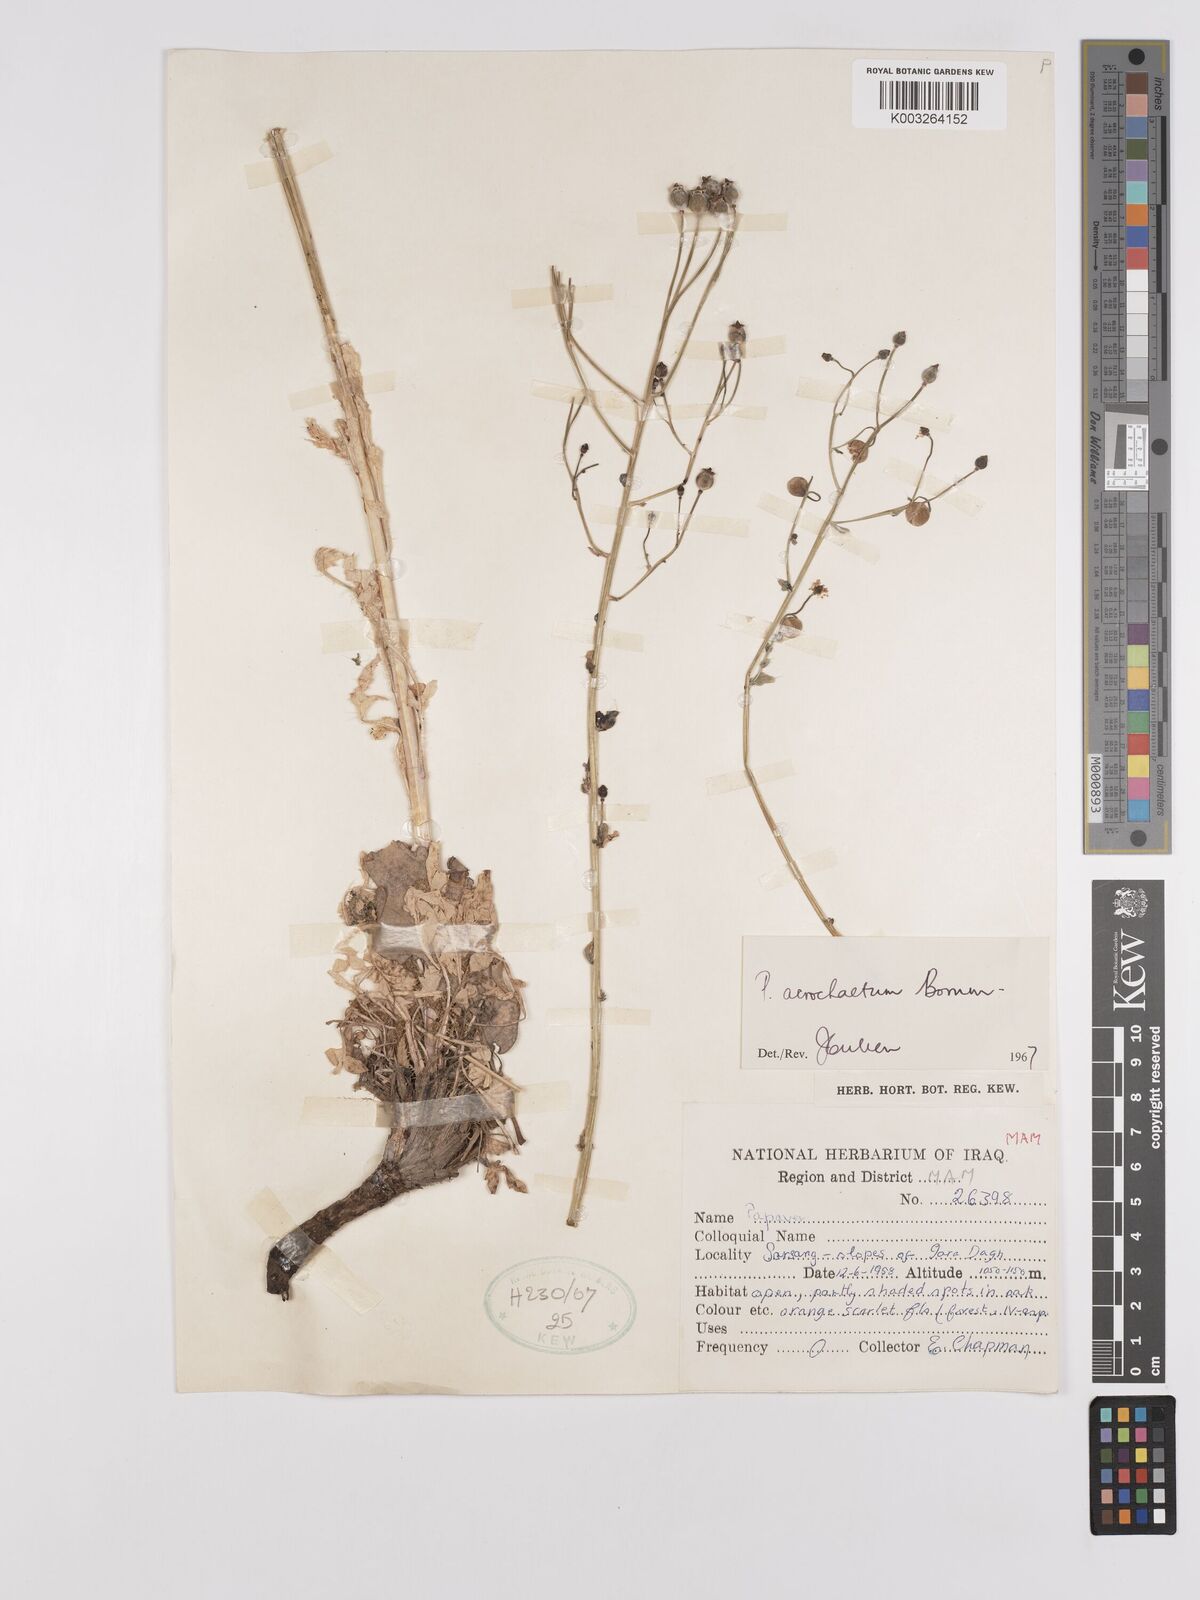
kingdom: Plantae
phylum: Tracheophyta
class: Magnoliopsida
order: Ranunculales
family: Papaveraceae
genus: Papaver
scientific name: Papaver acrochaetum
